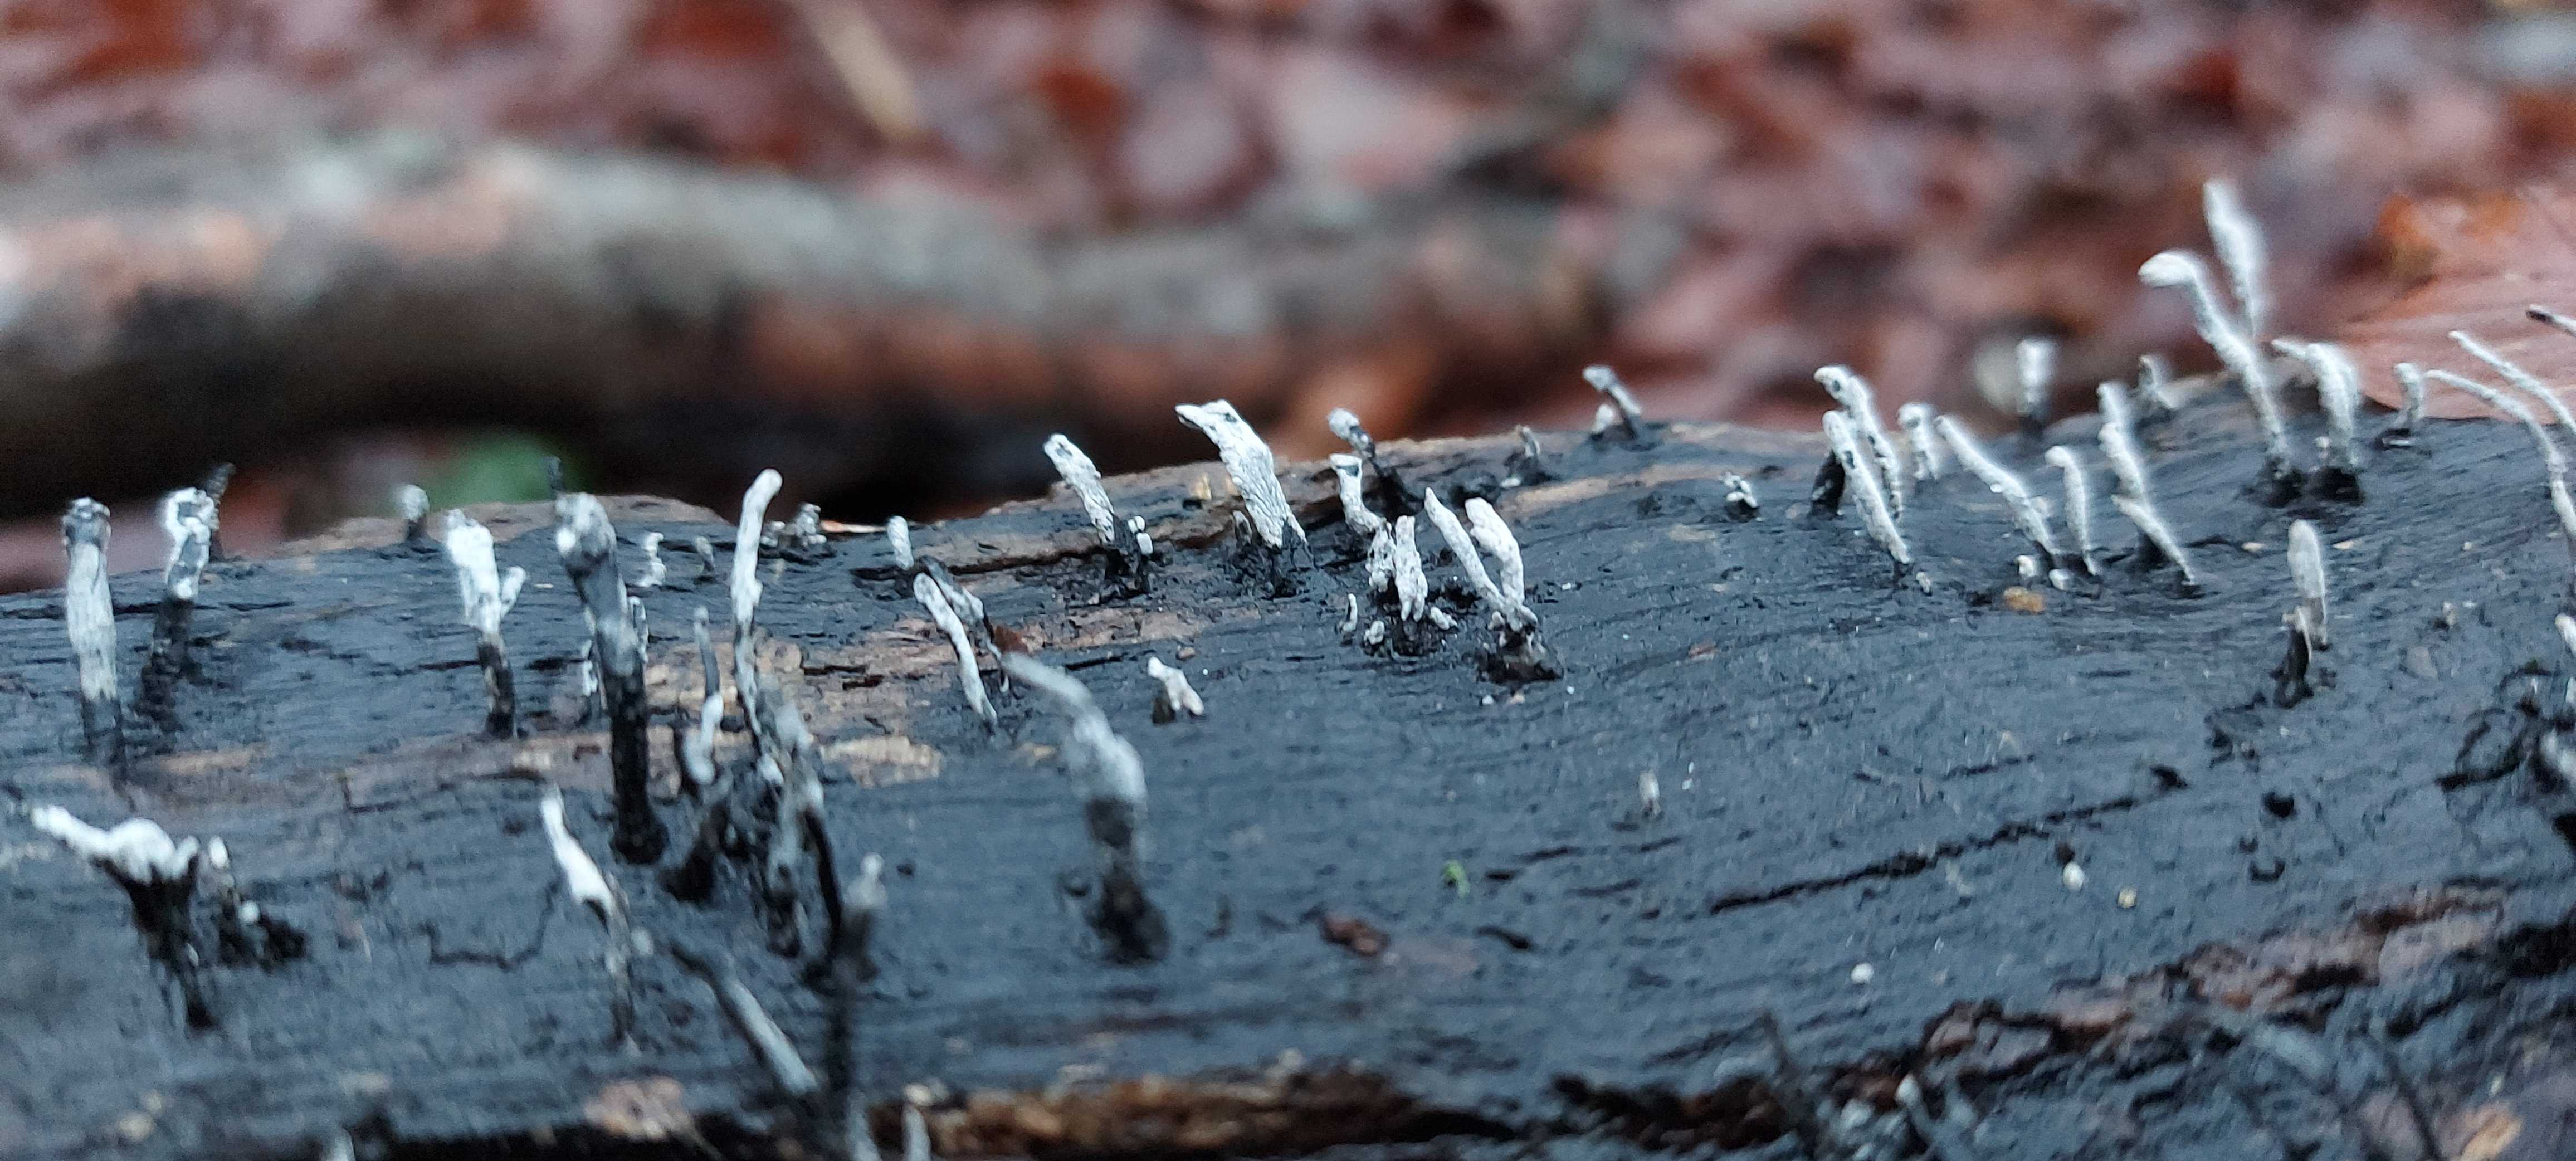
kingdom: Fungi
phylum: Ascomycota
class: Sordariomycetes
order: Xylariales
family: Xylariaceae
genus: Xylaria
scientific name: Xylaria hypoxylon
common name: grenet stødsvamp
